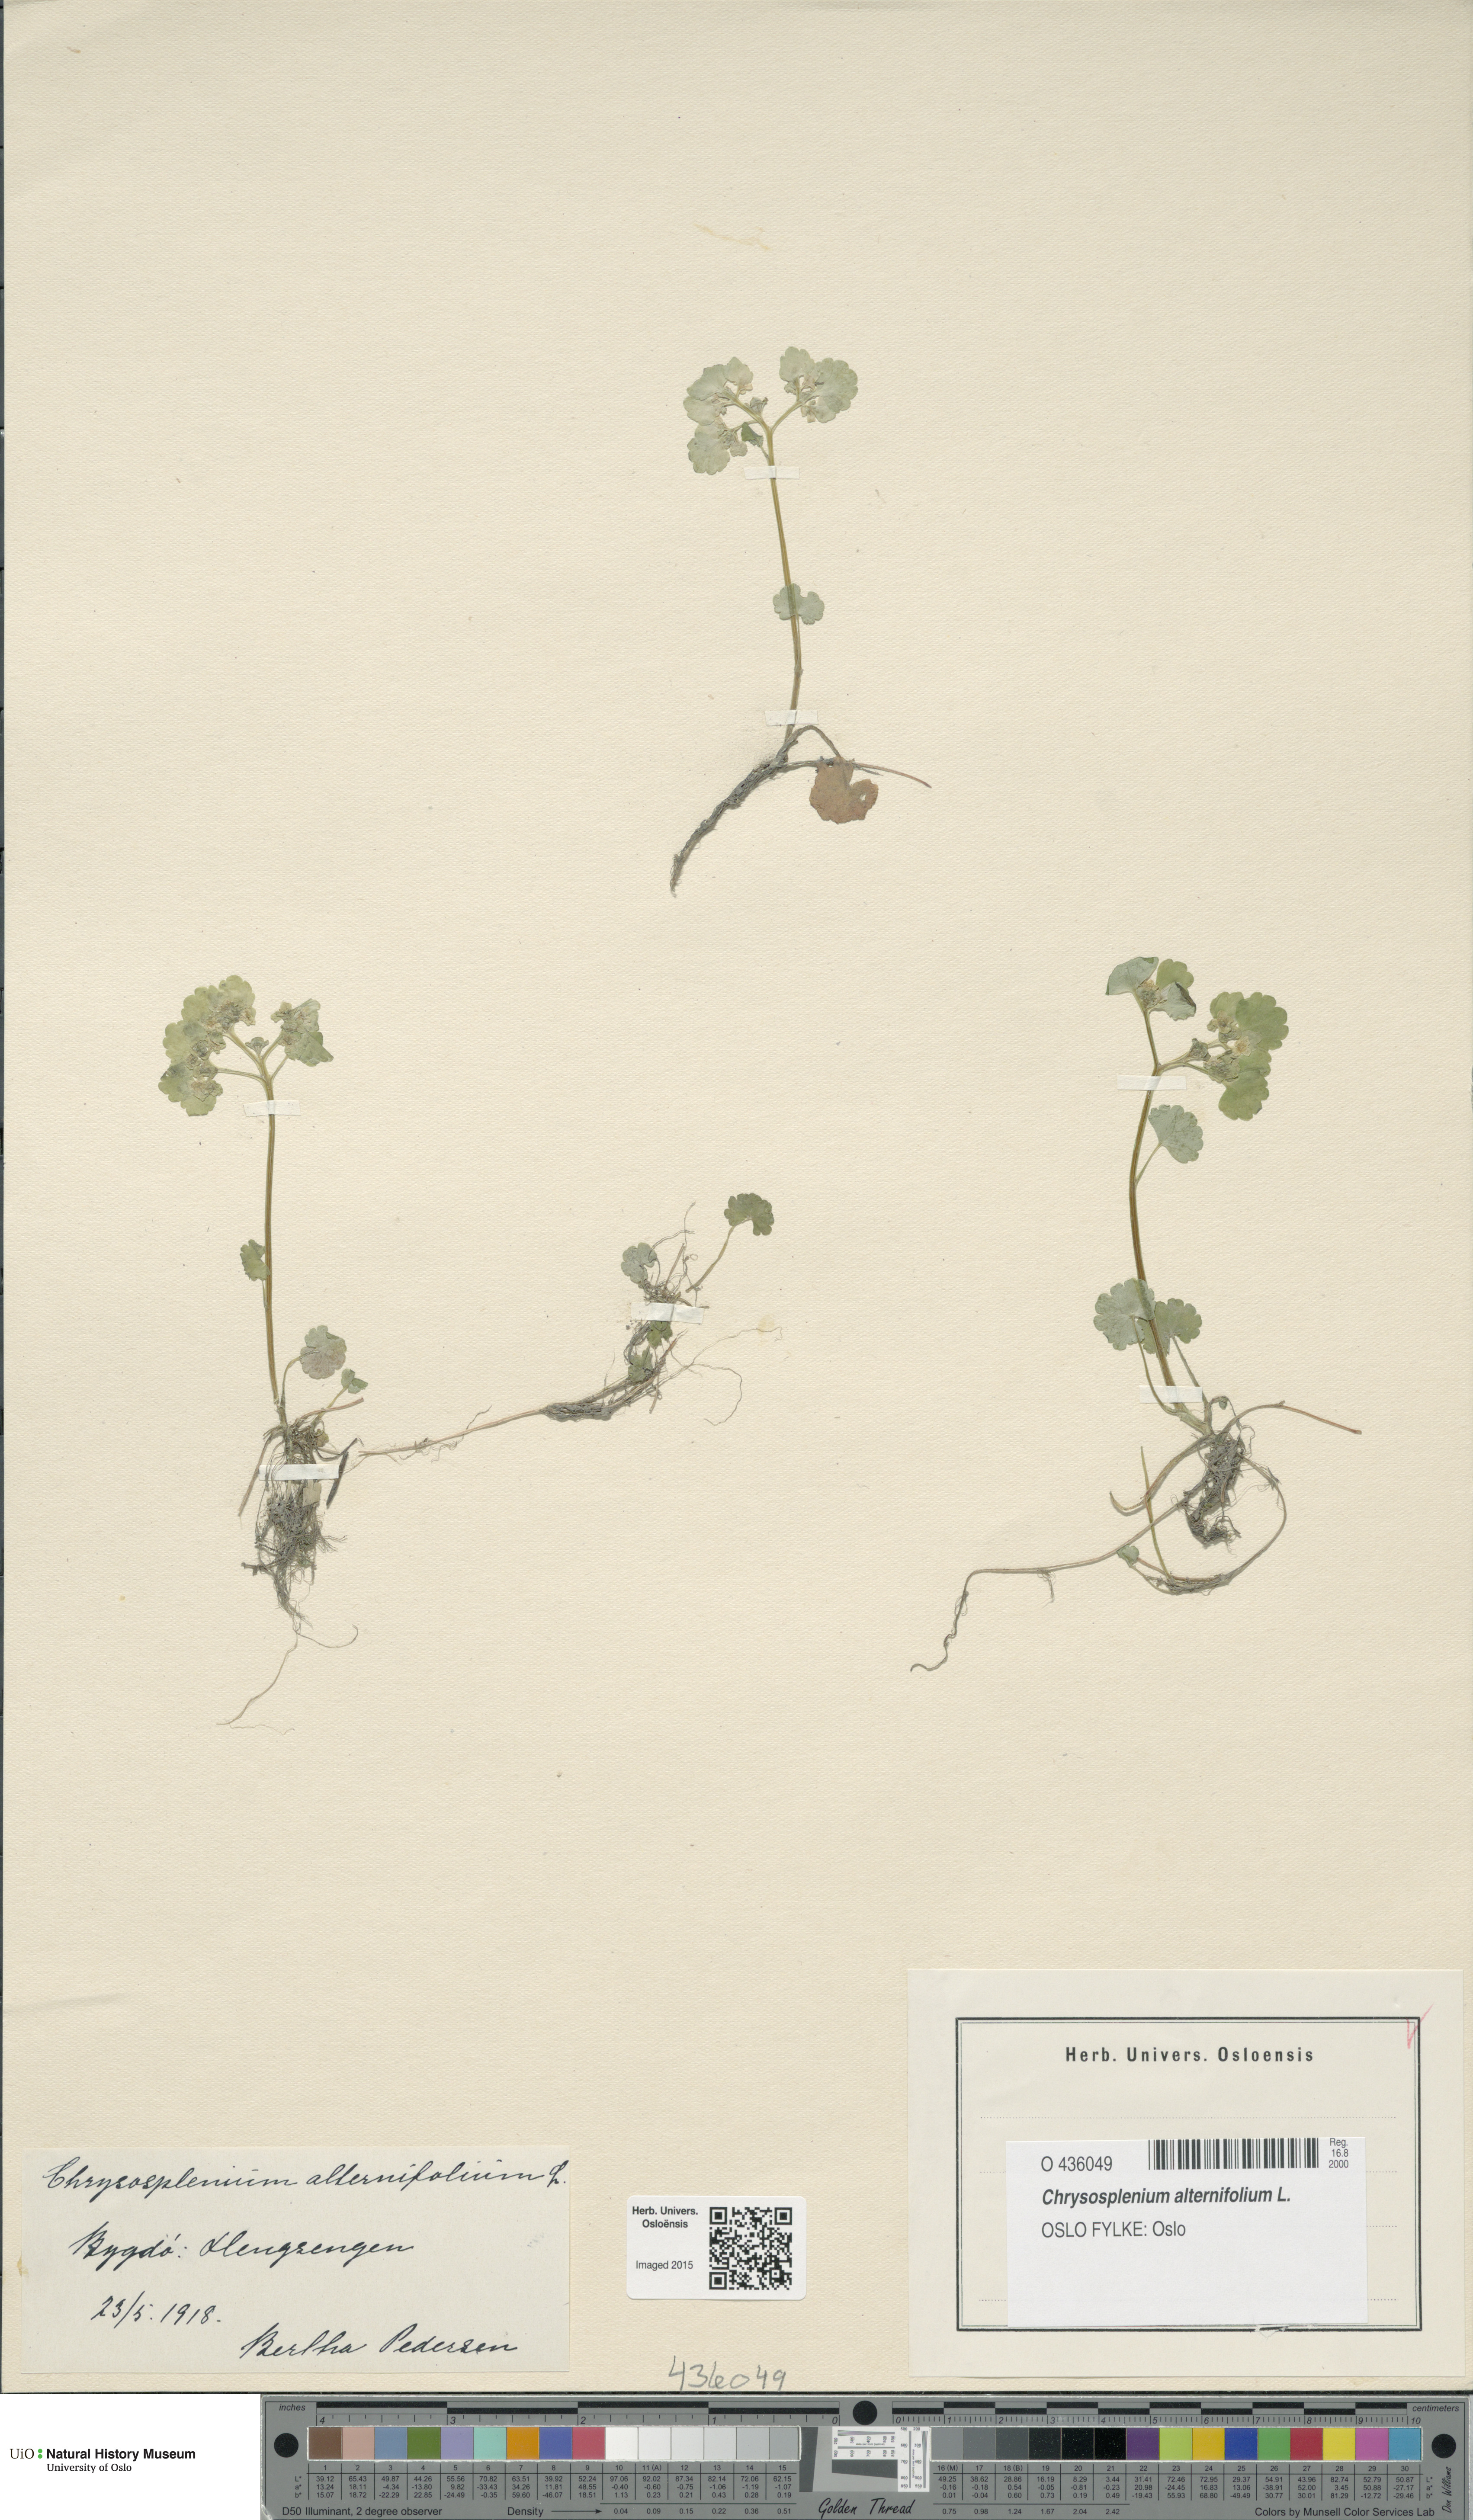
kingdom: Plantae
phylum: Tracheophyta
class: Magnoliopsida
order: Saxifragales
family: Saxifragaceae
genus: Chrysosplenium
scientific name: Chrysosplenium alternifolium
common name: Alternate-leaved golden-saxifrage
